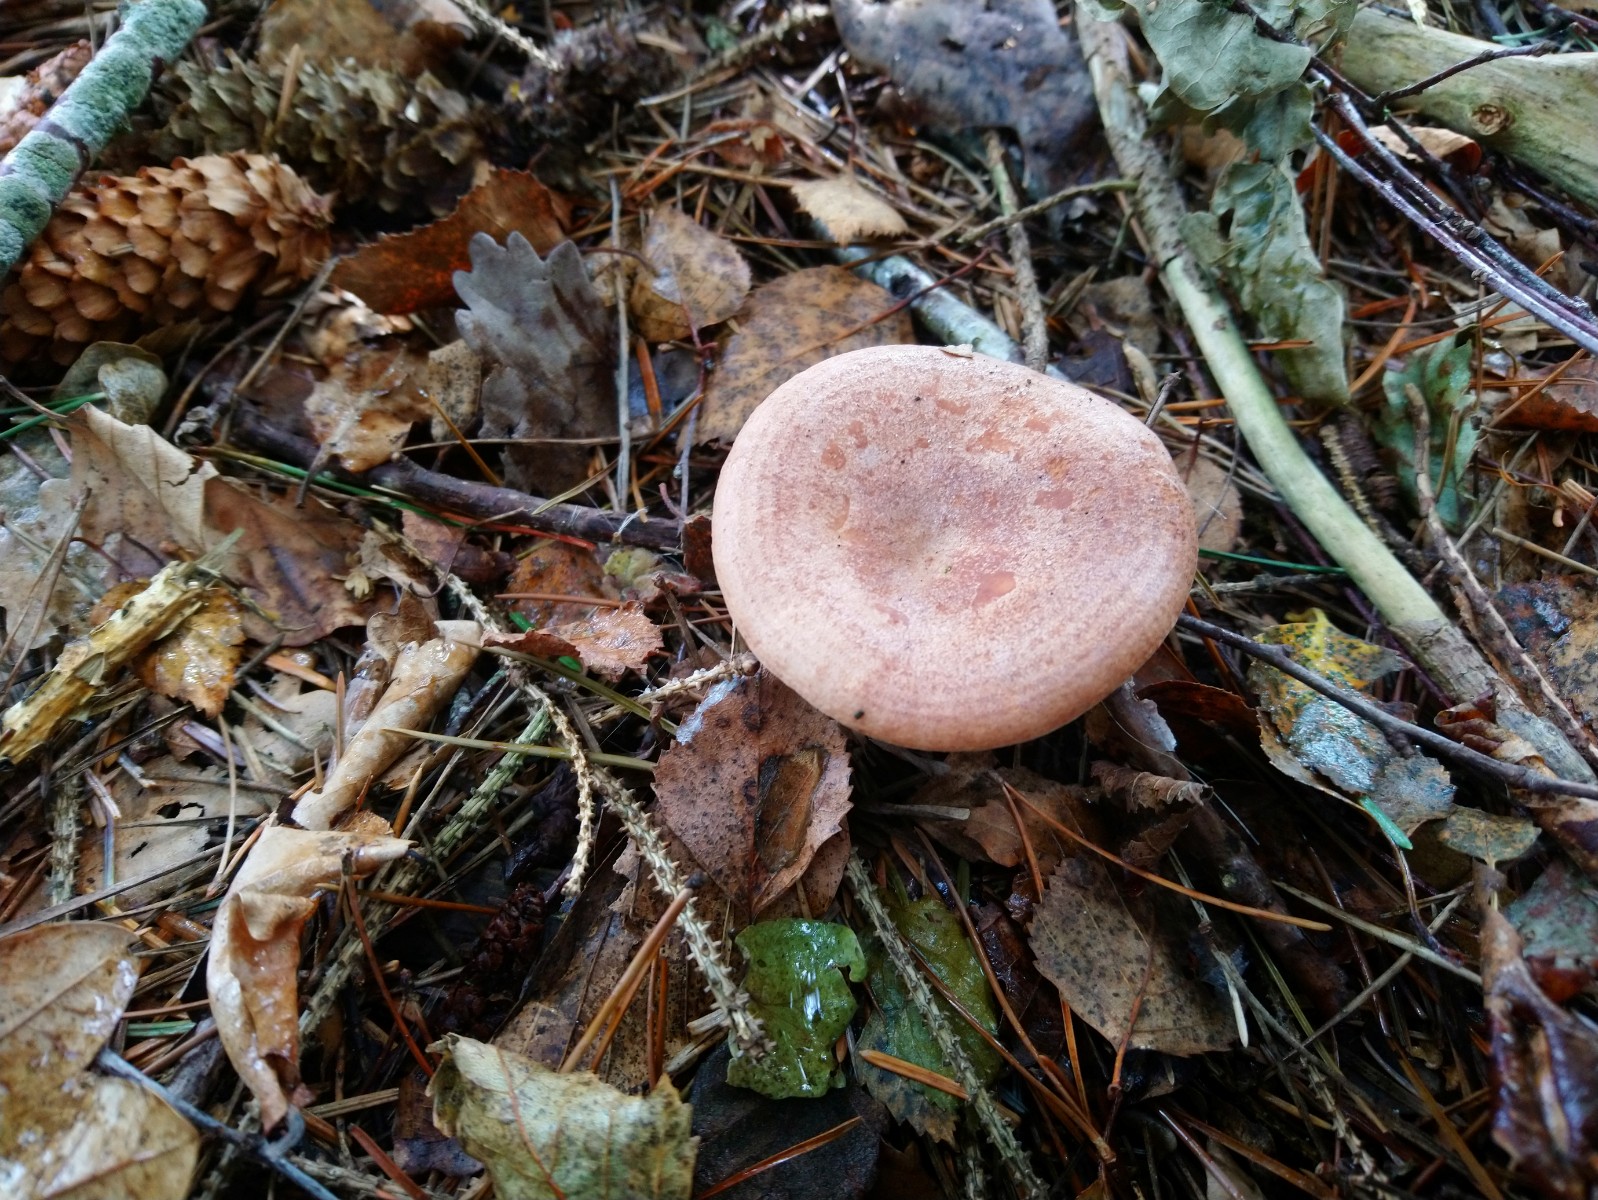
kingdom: Fungi
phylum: Basidiomycota
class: Agaricomycetes
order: Russulales
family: Russulaceae
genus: Lactarius
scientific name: Lactarius quietus
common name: ege-mælkehat
